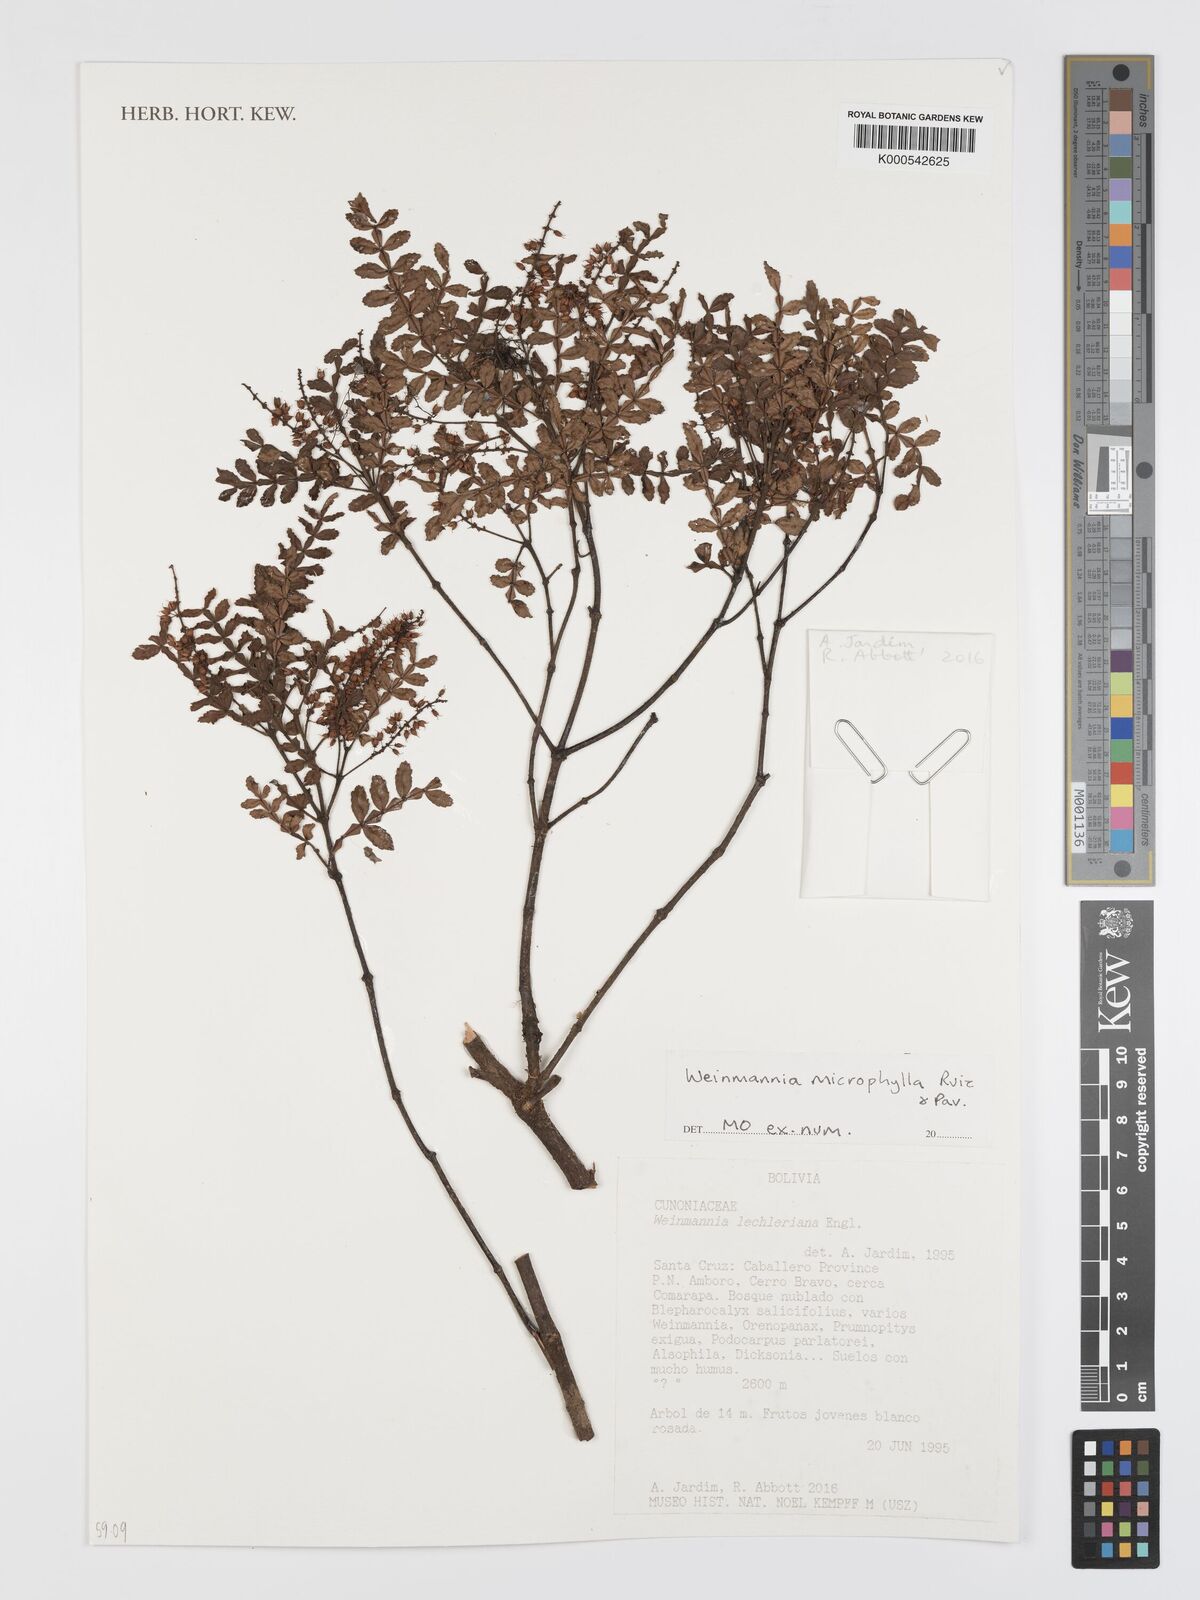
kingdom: Plantae
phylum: Tracheophyta
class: Magnoliopsida
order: Oxalidales
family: Cunoniaceae
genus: Weinmannia
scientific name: Weinmannia microphylla
